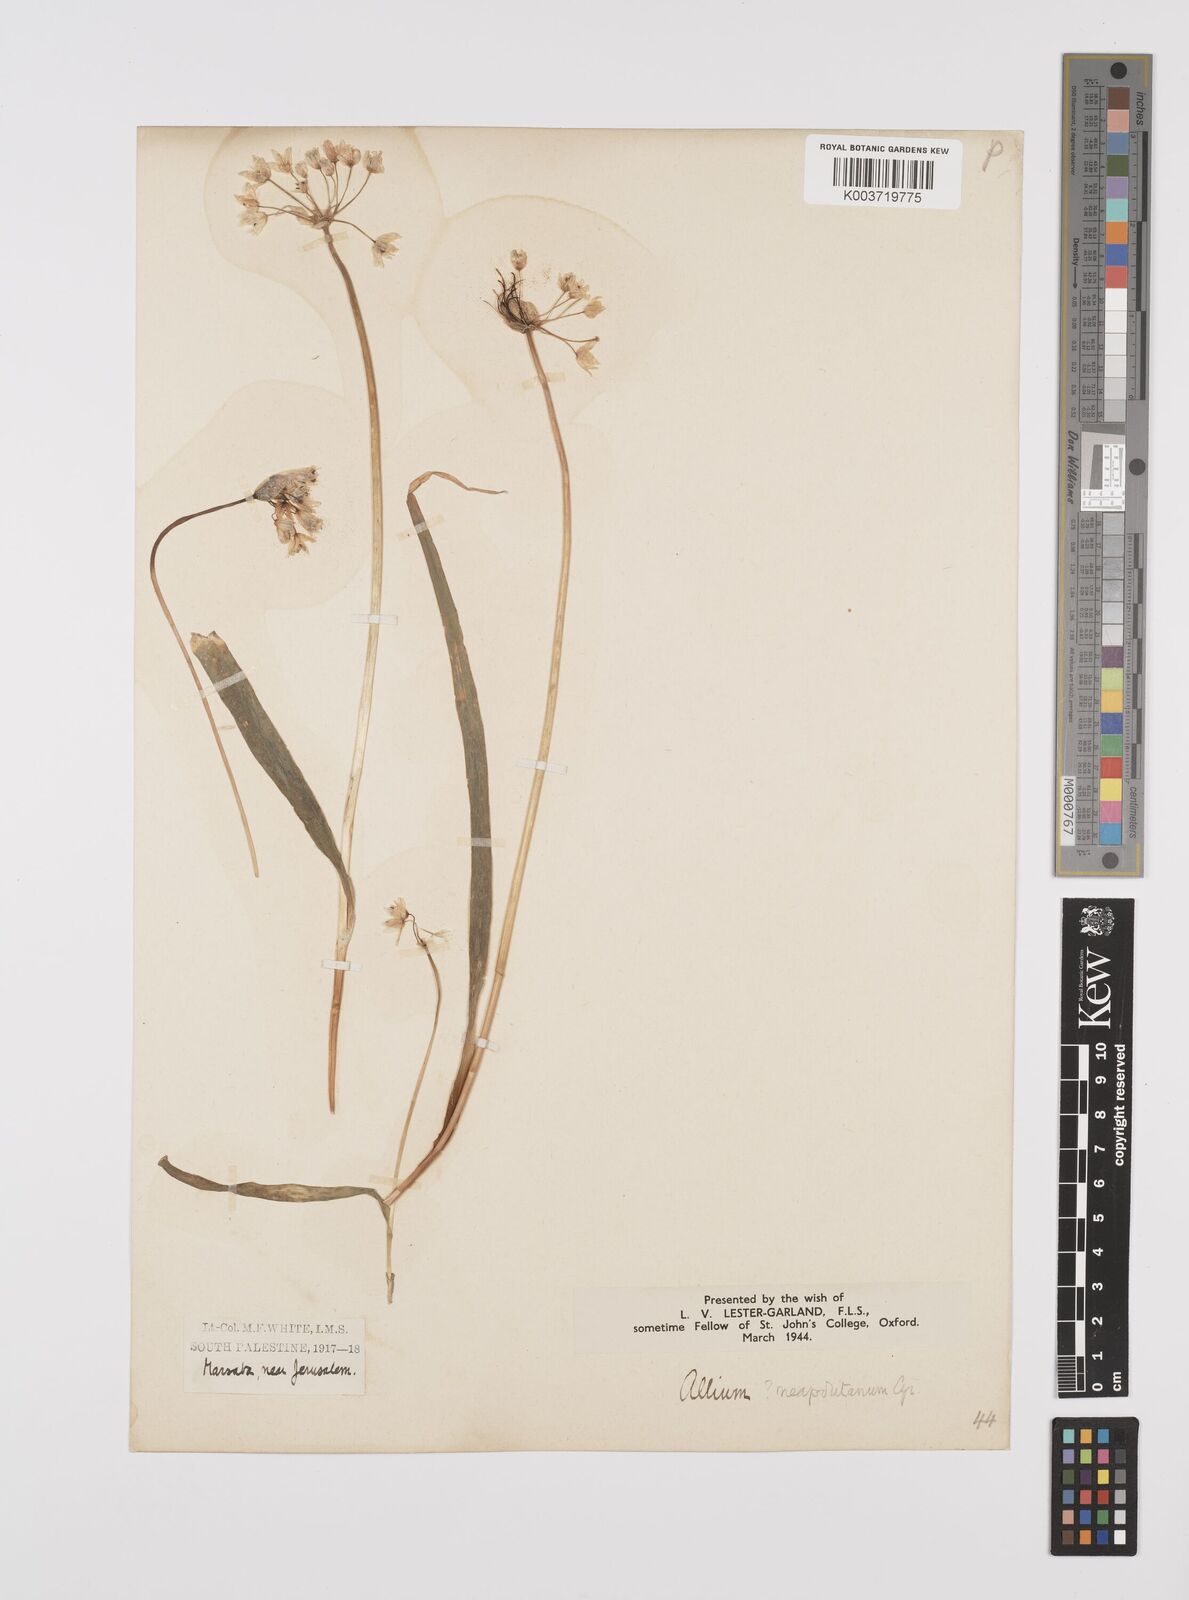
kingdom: Plantae
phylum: Tracheophyta
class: Liliopsida
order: Asparagales
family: Amaryllidaceae
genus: Allium
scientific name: Allium neapolitanum
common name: Neapolitan garlic
